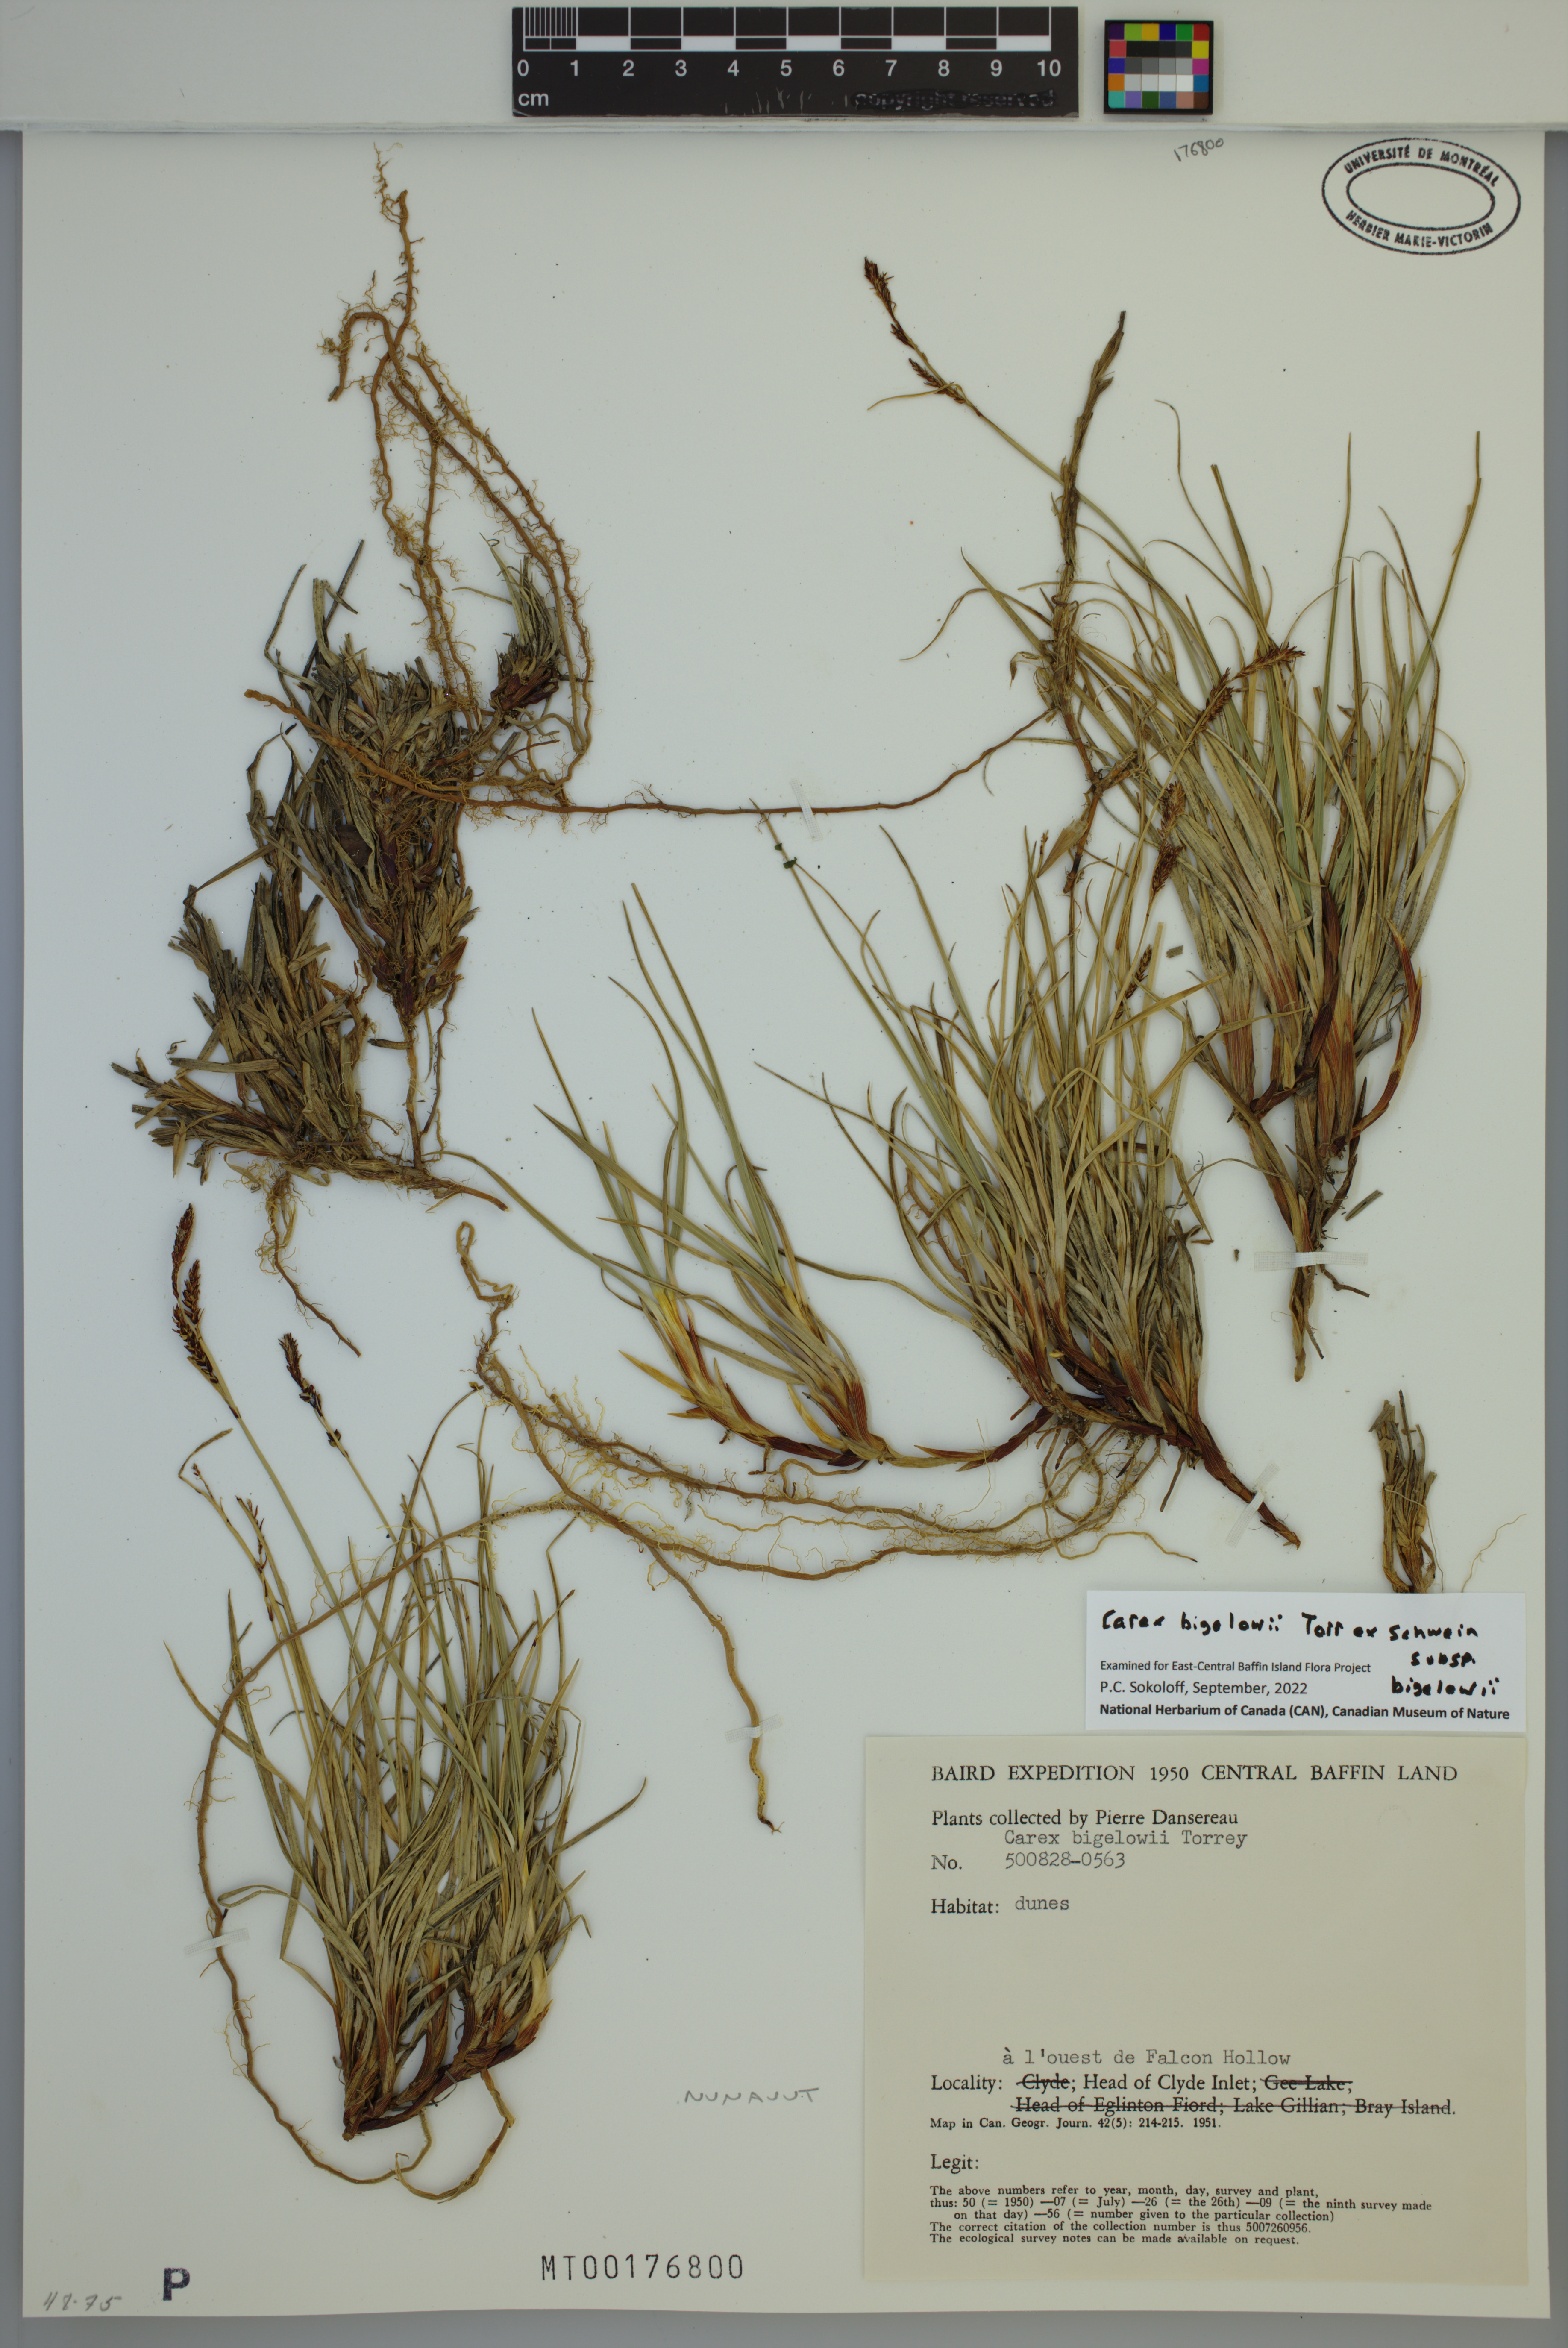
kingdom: Plantae
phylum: Tracheophyta
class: Liliopsida
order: Poales
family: Cyperaceae
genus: Carex
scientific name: Carex bigelowii
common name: Stiff sedge
